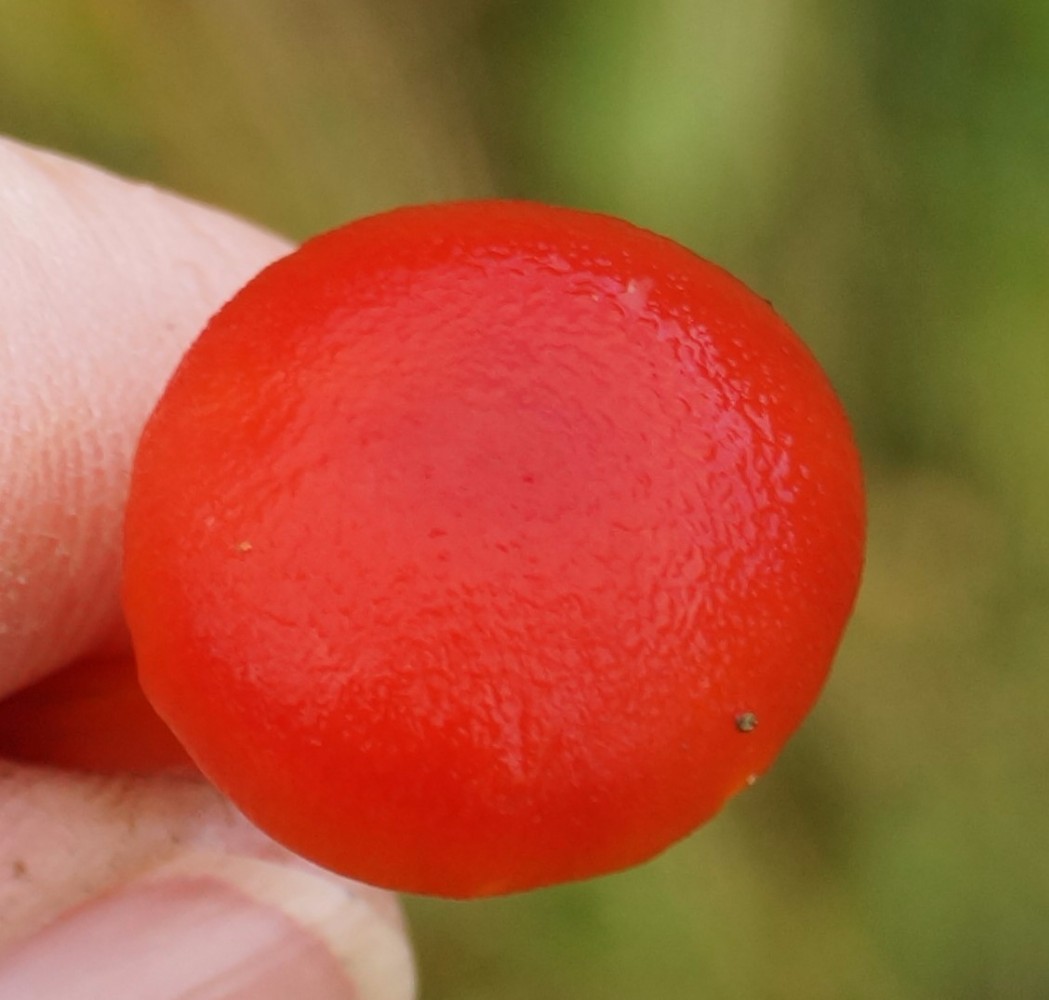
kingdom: Fungi
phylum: Basidiomycota
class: Agaricomycetes
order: Agaricales
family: Hygrophoraceae
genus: Hygrocybe
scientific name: Hygrocybe miniata
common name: mønje-vokshat
